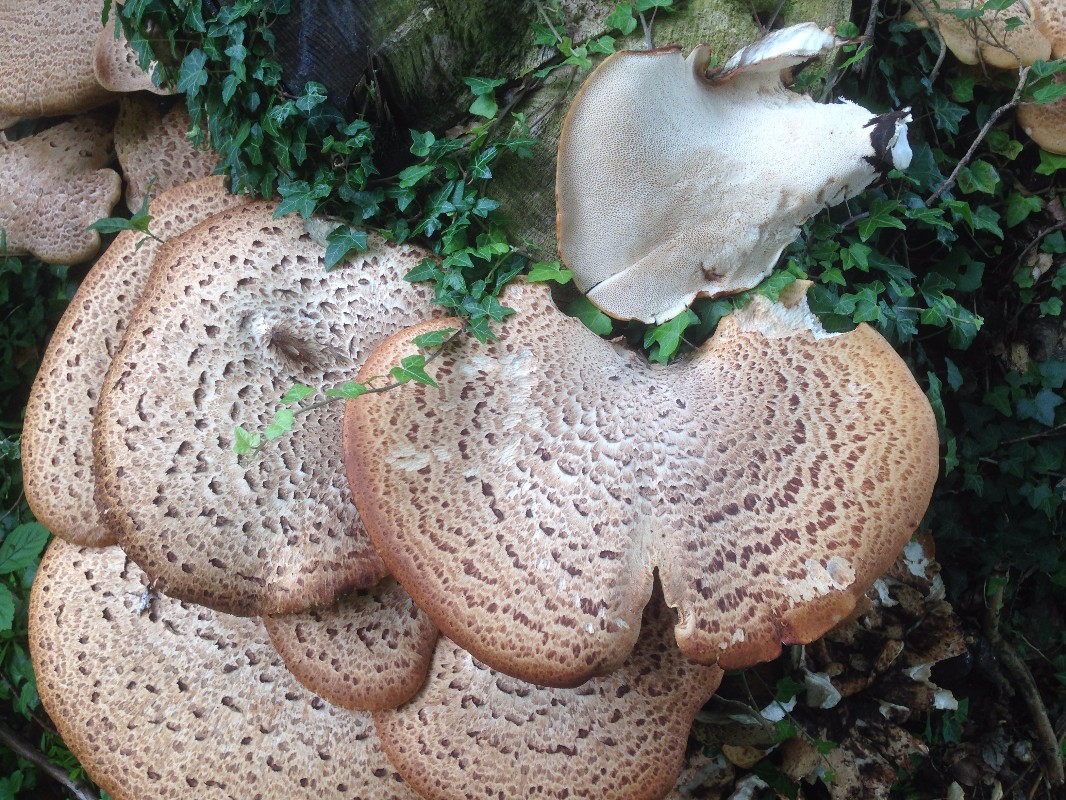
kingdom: Fungi
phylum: Basidiomycota
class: Agaricomycetes
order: Polyporales
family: Polyporaceae
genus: Cerioporus
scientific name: Cerioporus squamosus
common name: skællet stilkporesvamp
